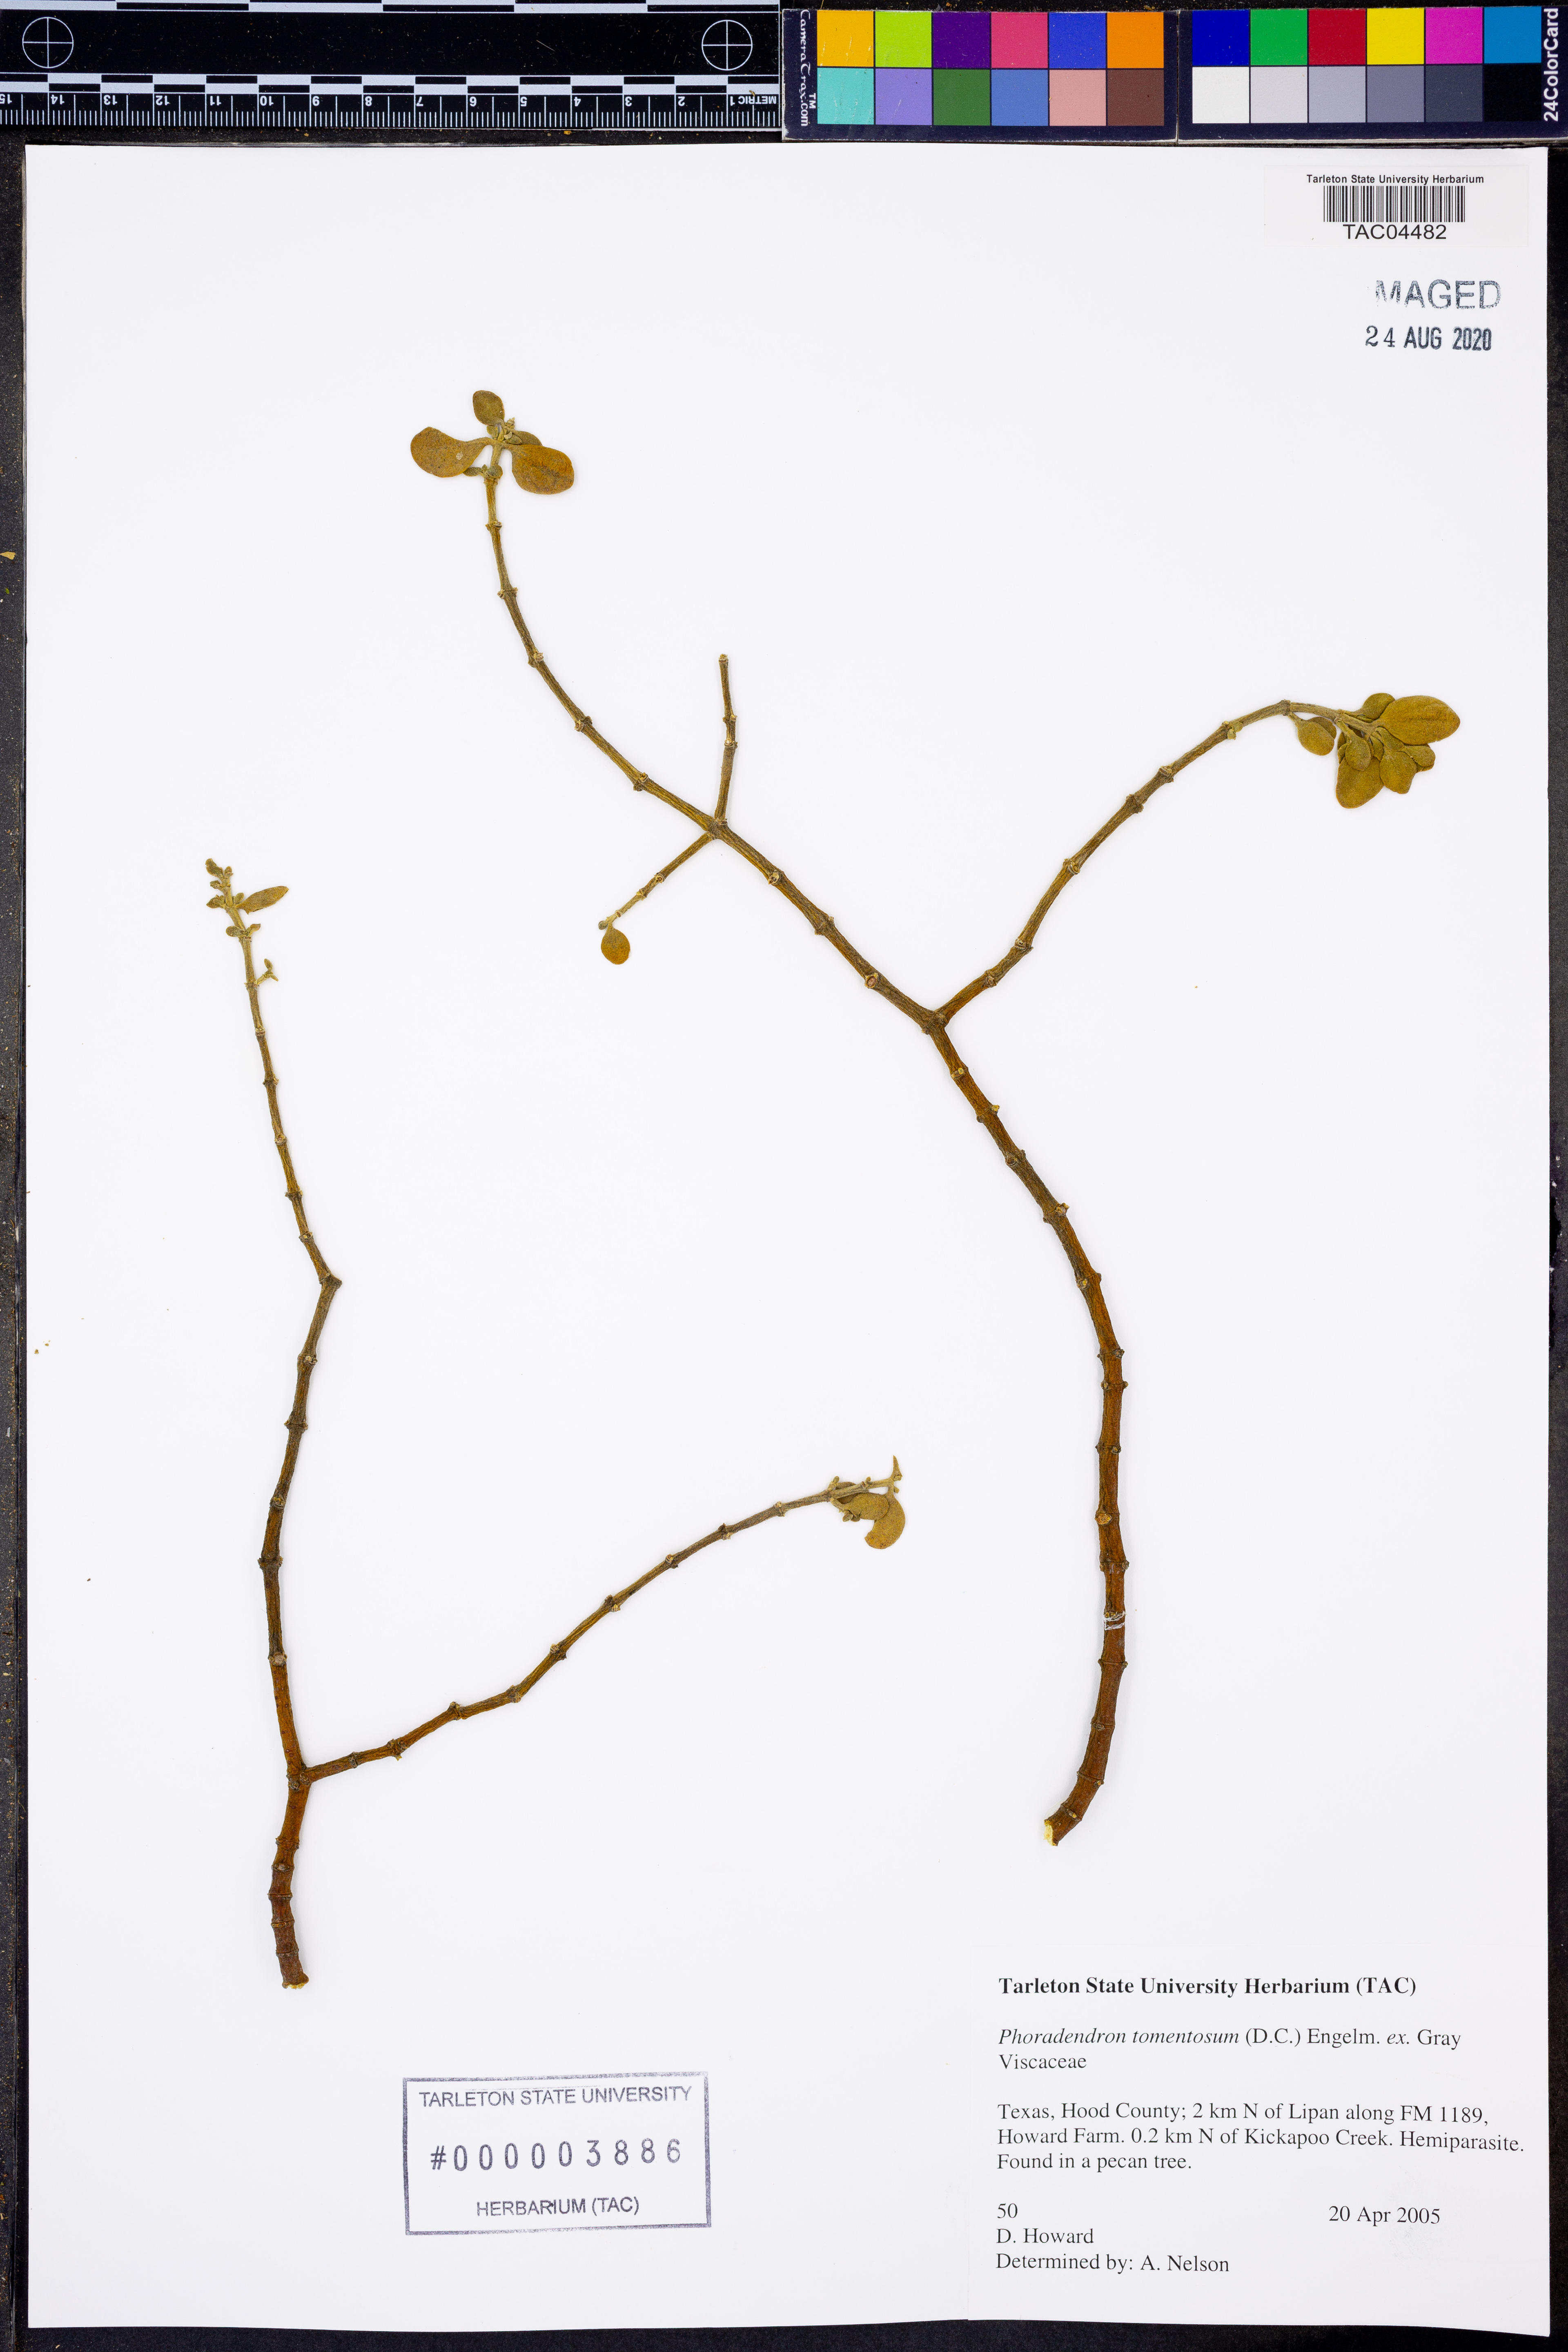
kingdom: Plantae
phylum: Tracheophyta
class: Magnoliopsida
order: Santalales
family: Viscaceae
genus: Phoradendron
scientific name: Phoradendron leucarpum
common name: Pacific mistletoe
